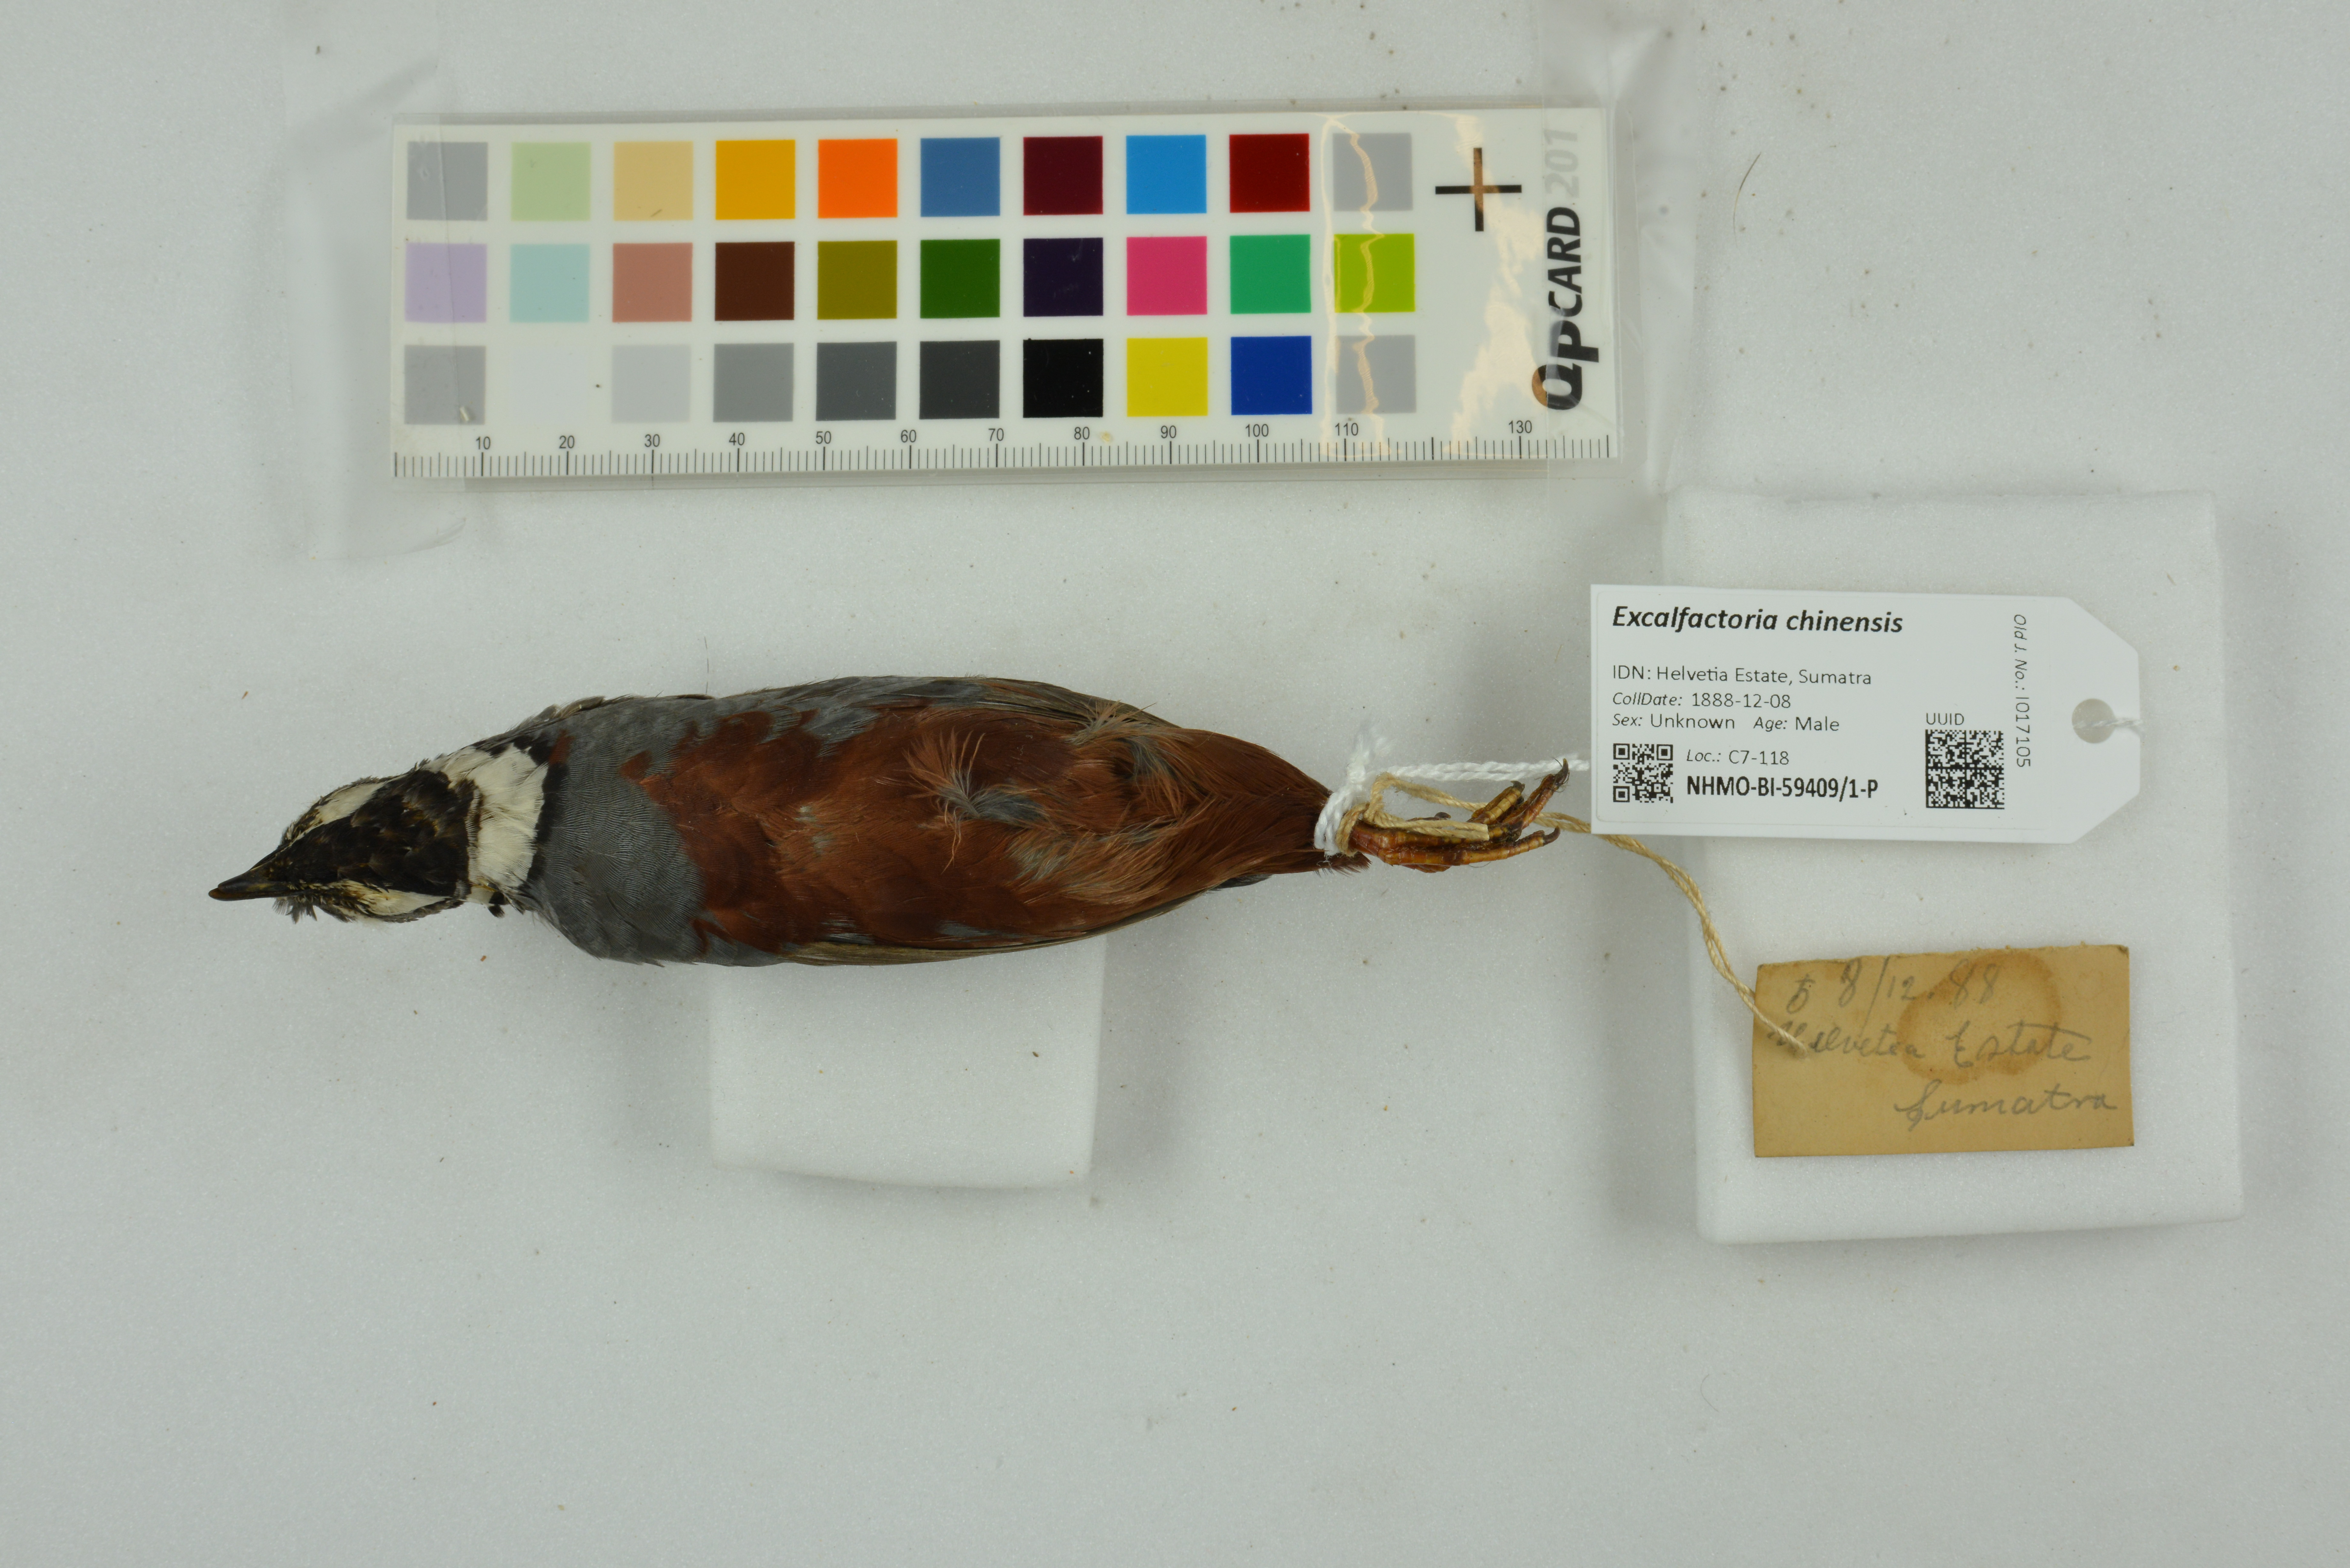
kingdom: Animalia
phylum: Chordata
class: Aves
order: Galliformes
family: Phasianidae
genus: Synoicus
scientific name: Synoicus chinensis
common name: Blue-breasted quail
